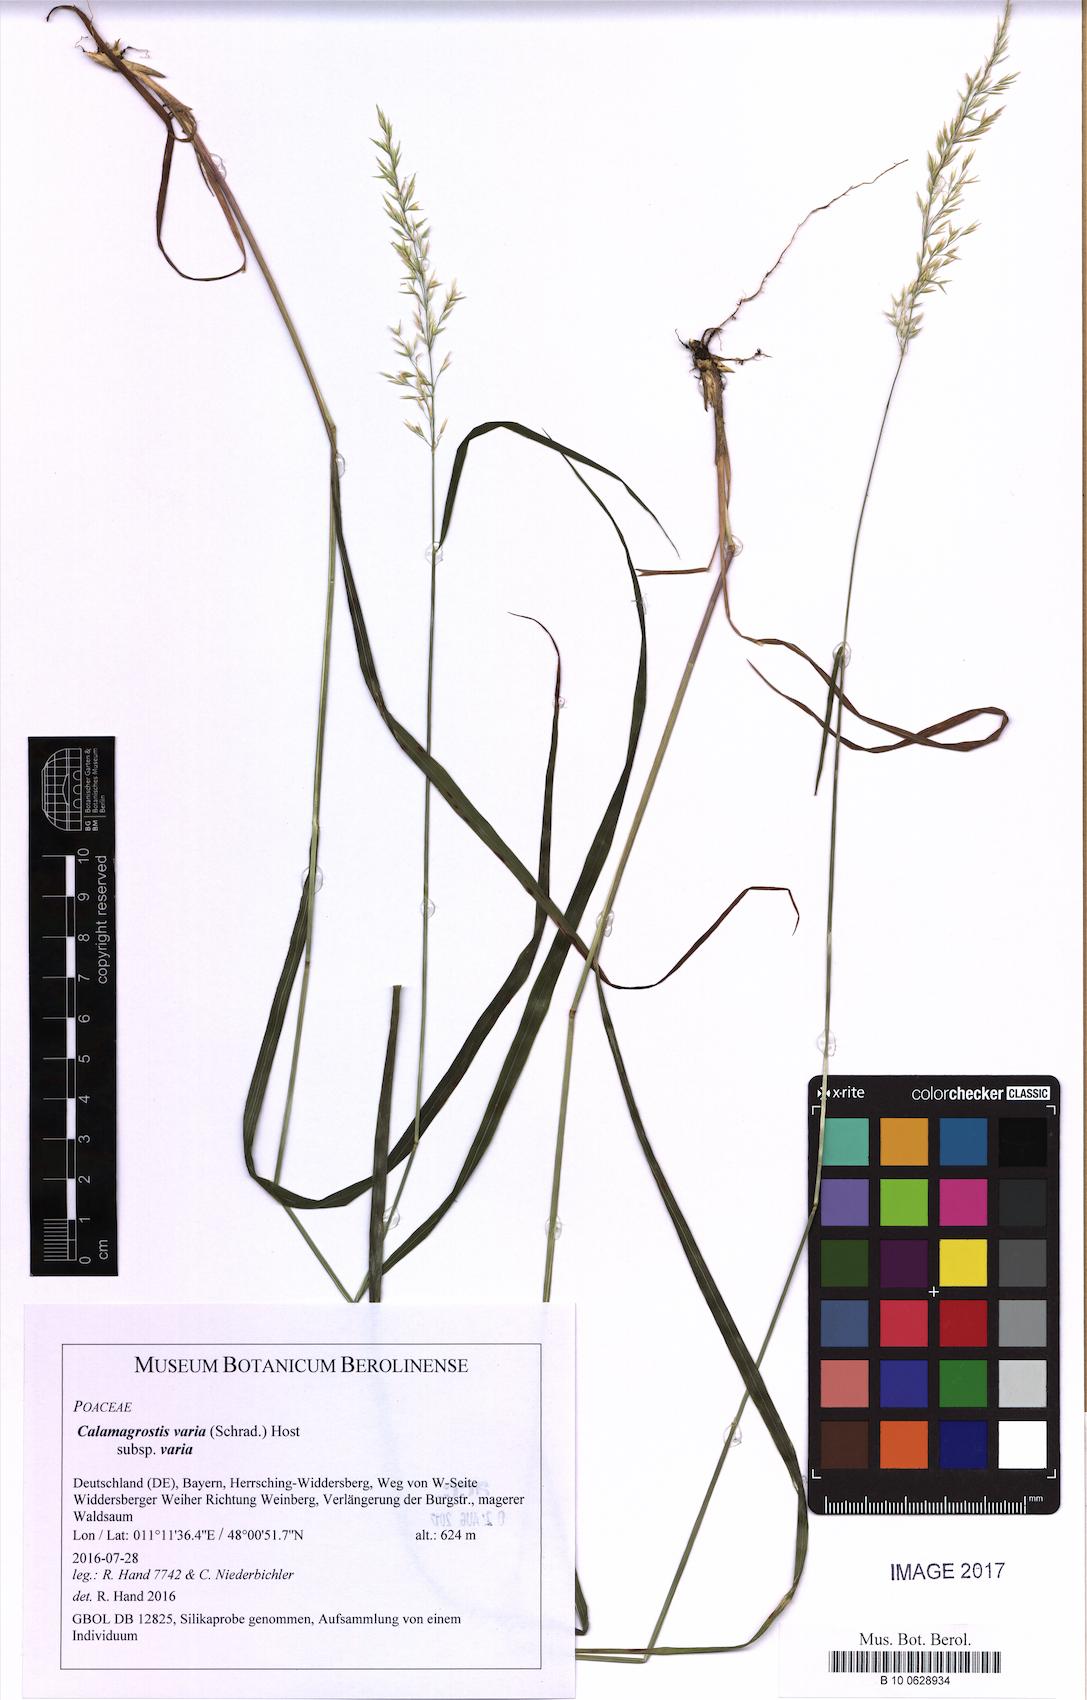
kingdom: Plantae
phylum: Tracheophyta
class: Liliopsida
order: Poales
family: Poaceae
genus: Calamagrostis
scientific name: Calamagrostis varia
